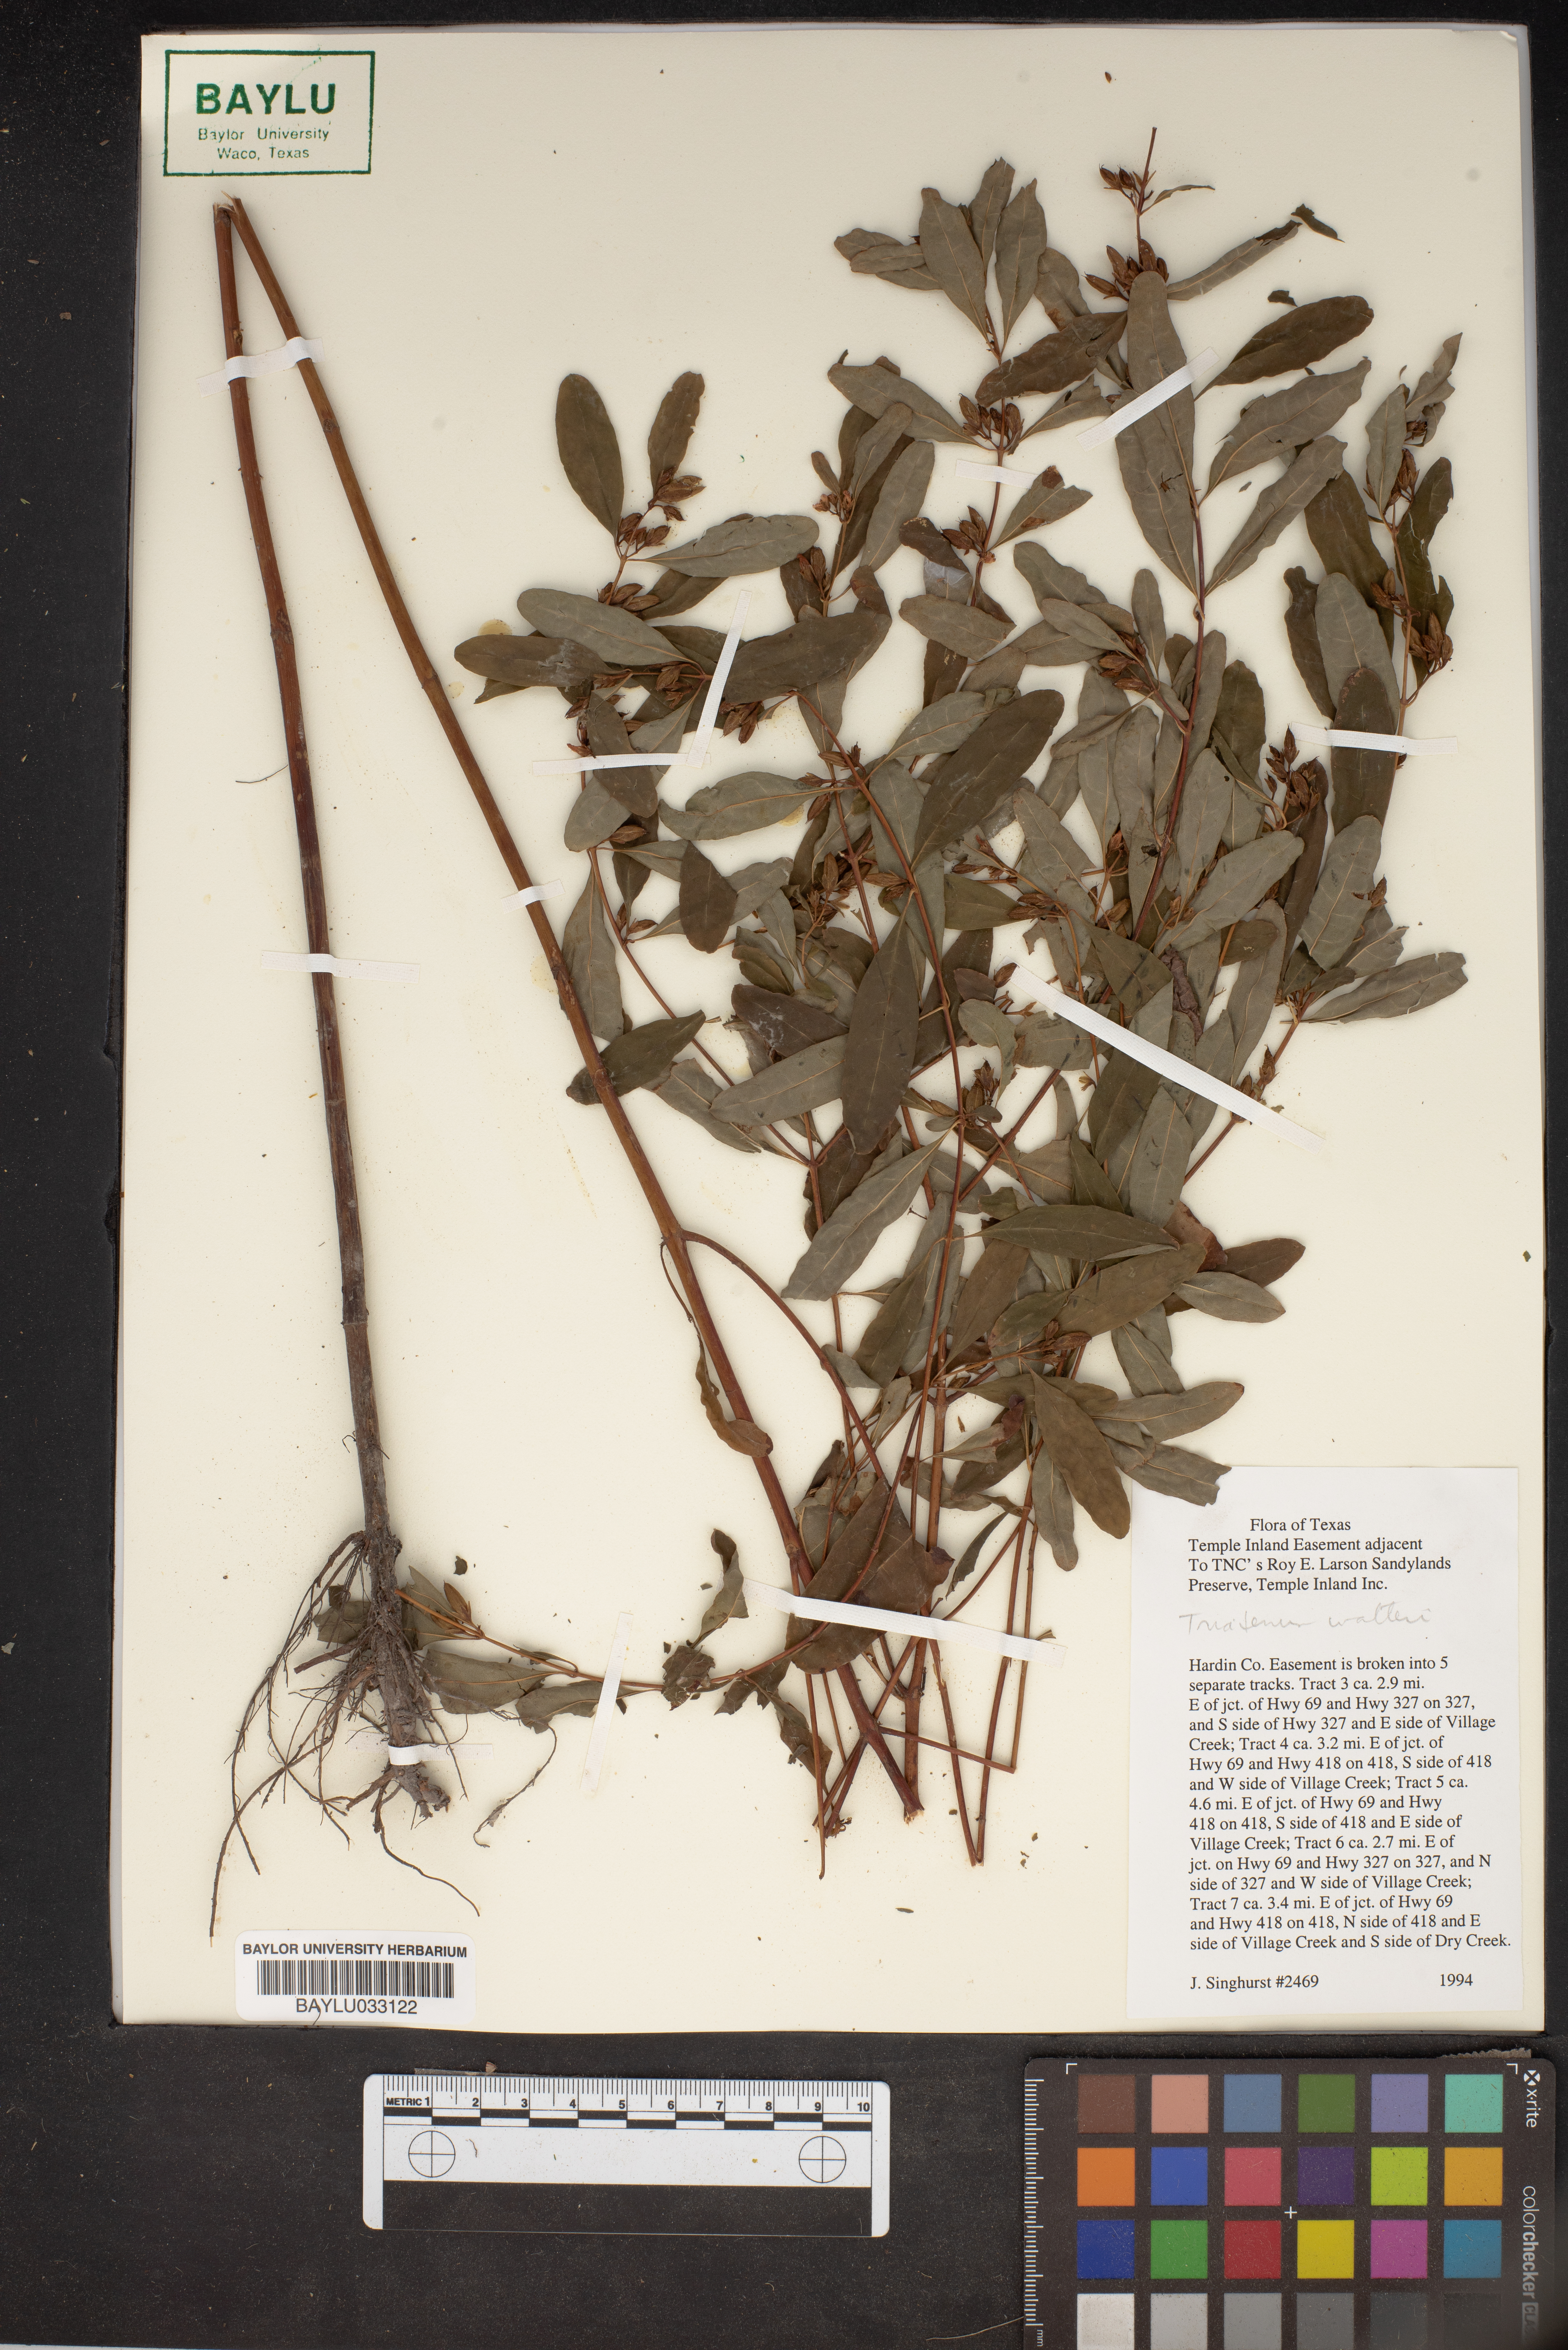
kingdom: Plantae
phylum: Tracheophyta
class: Magnoliopsida
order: Malpighiales
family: Hypericaceae
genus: Triadenum
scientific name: Triadenum walteri
